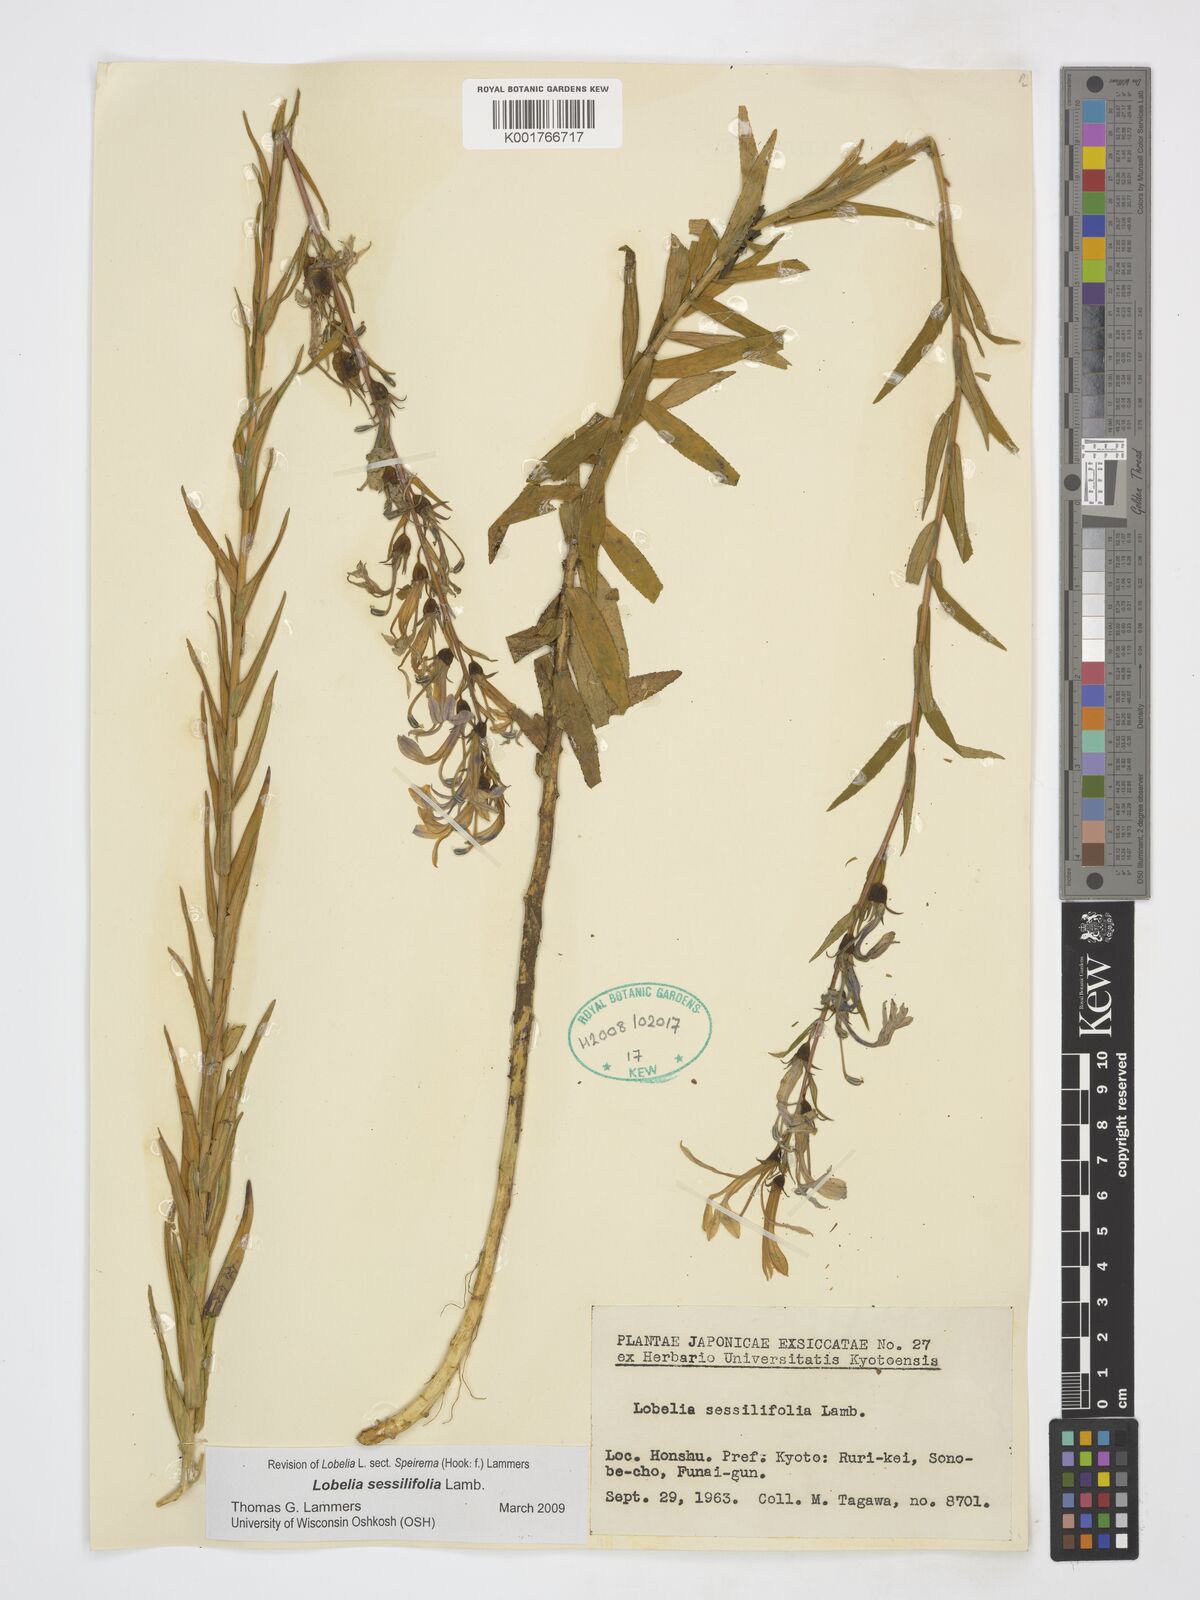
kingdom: Plantae
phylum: Tracheophyta
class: Magnoliopsida
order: Asterales
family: Campanulaceae
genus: Lobelia
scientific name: Lobelia sessilifolia
